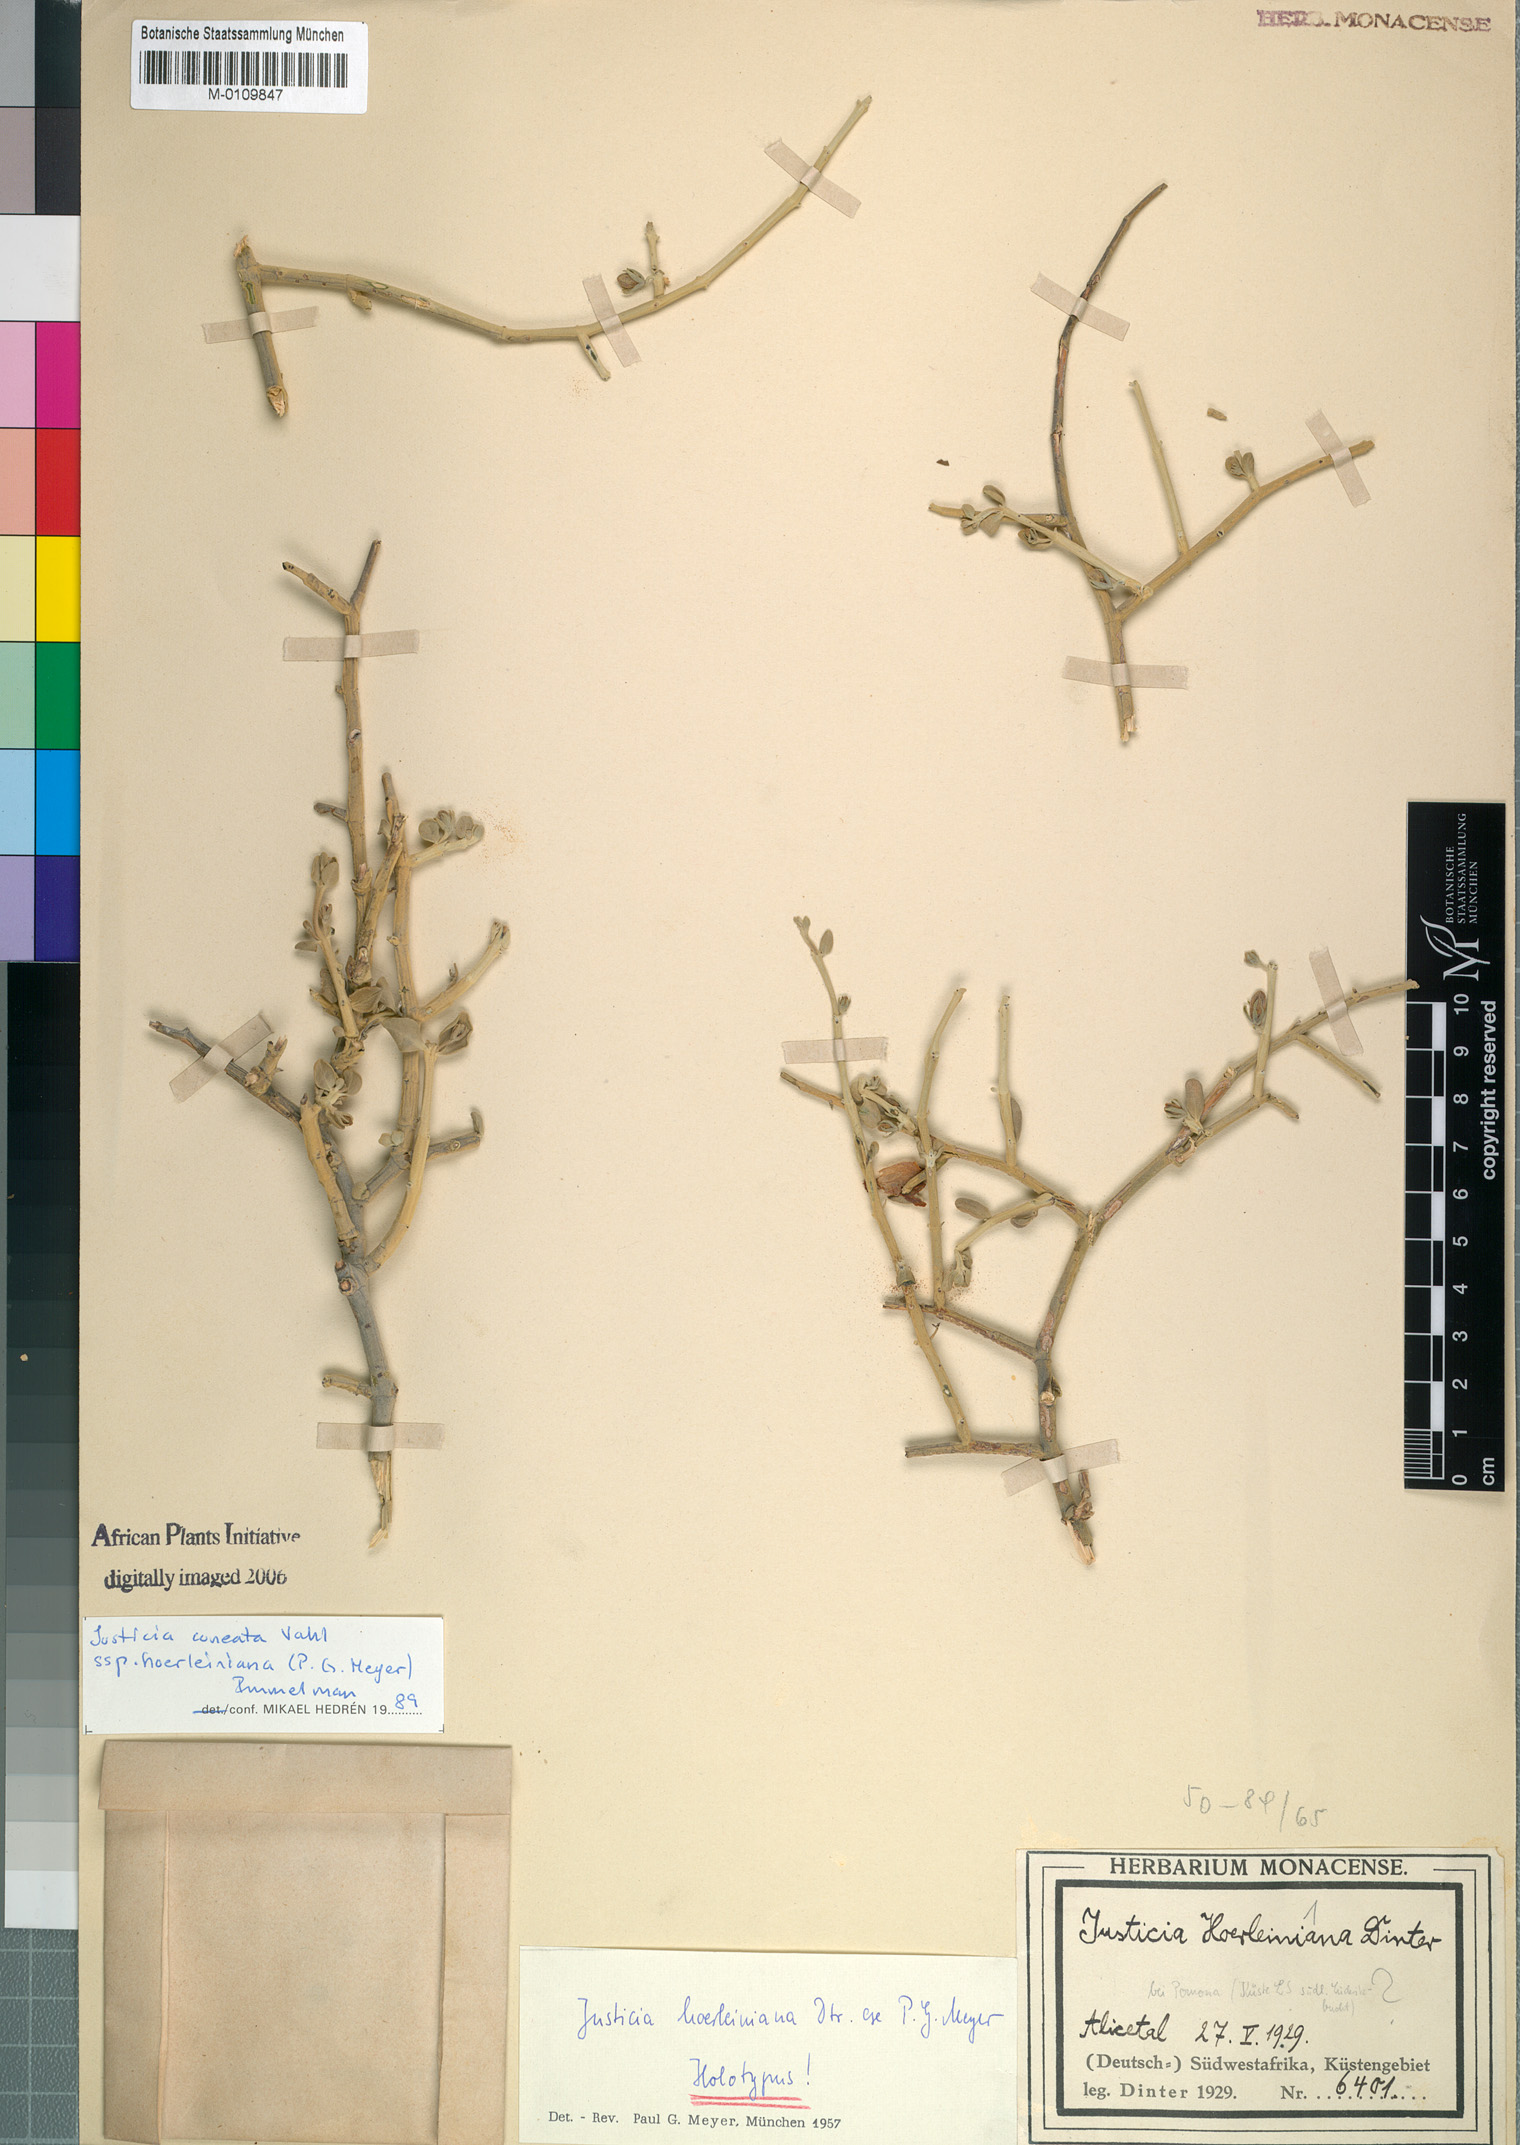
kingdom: Plantae
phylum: Tracheophyta
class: Magnoliopsida
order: Lamiales
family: Acanthaceae
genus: Justicia
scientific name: Justicia cuneata
